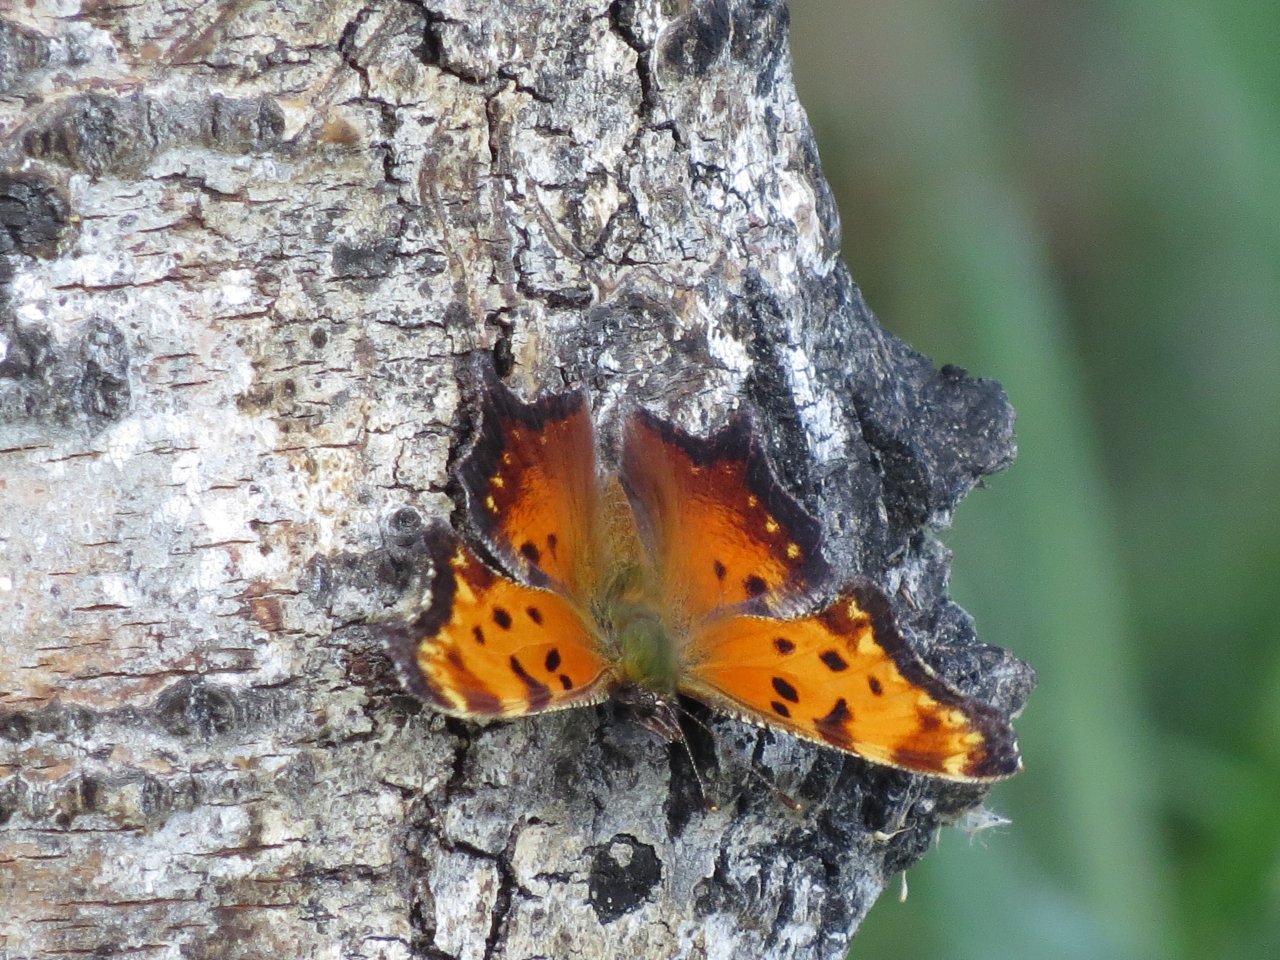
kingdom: Animalia
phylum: Arthropoda
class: Insecta
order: Lepidoptera
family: Nymphalidae
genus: Polygonia
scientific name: Polygonia progne
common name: Gray Comma
